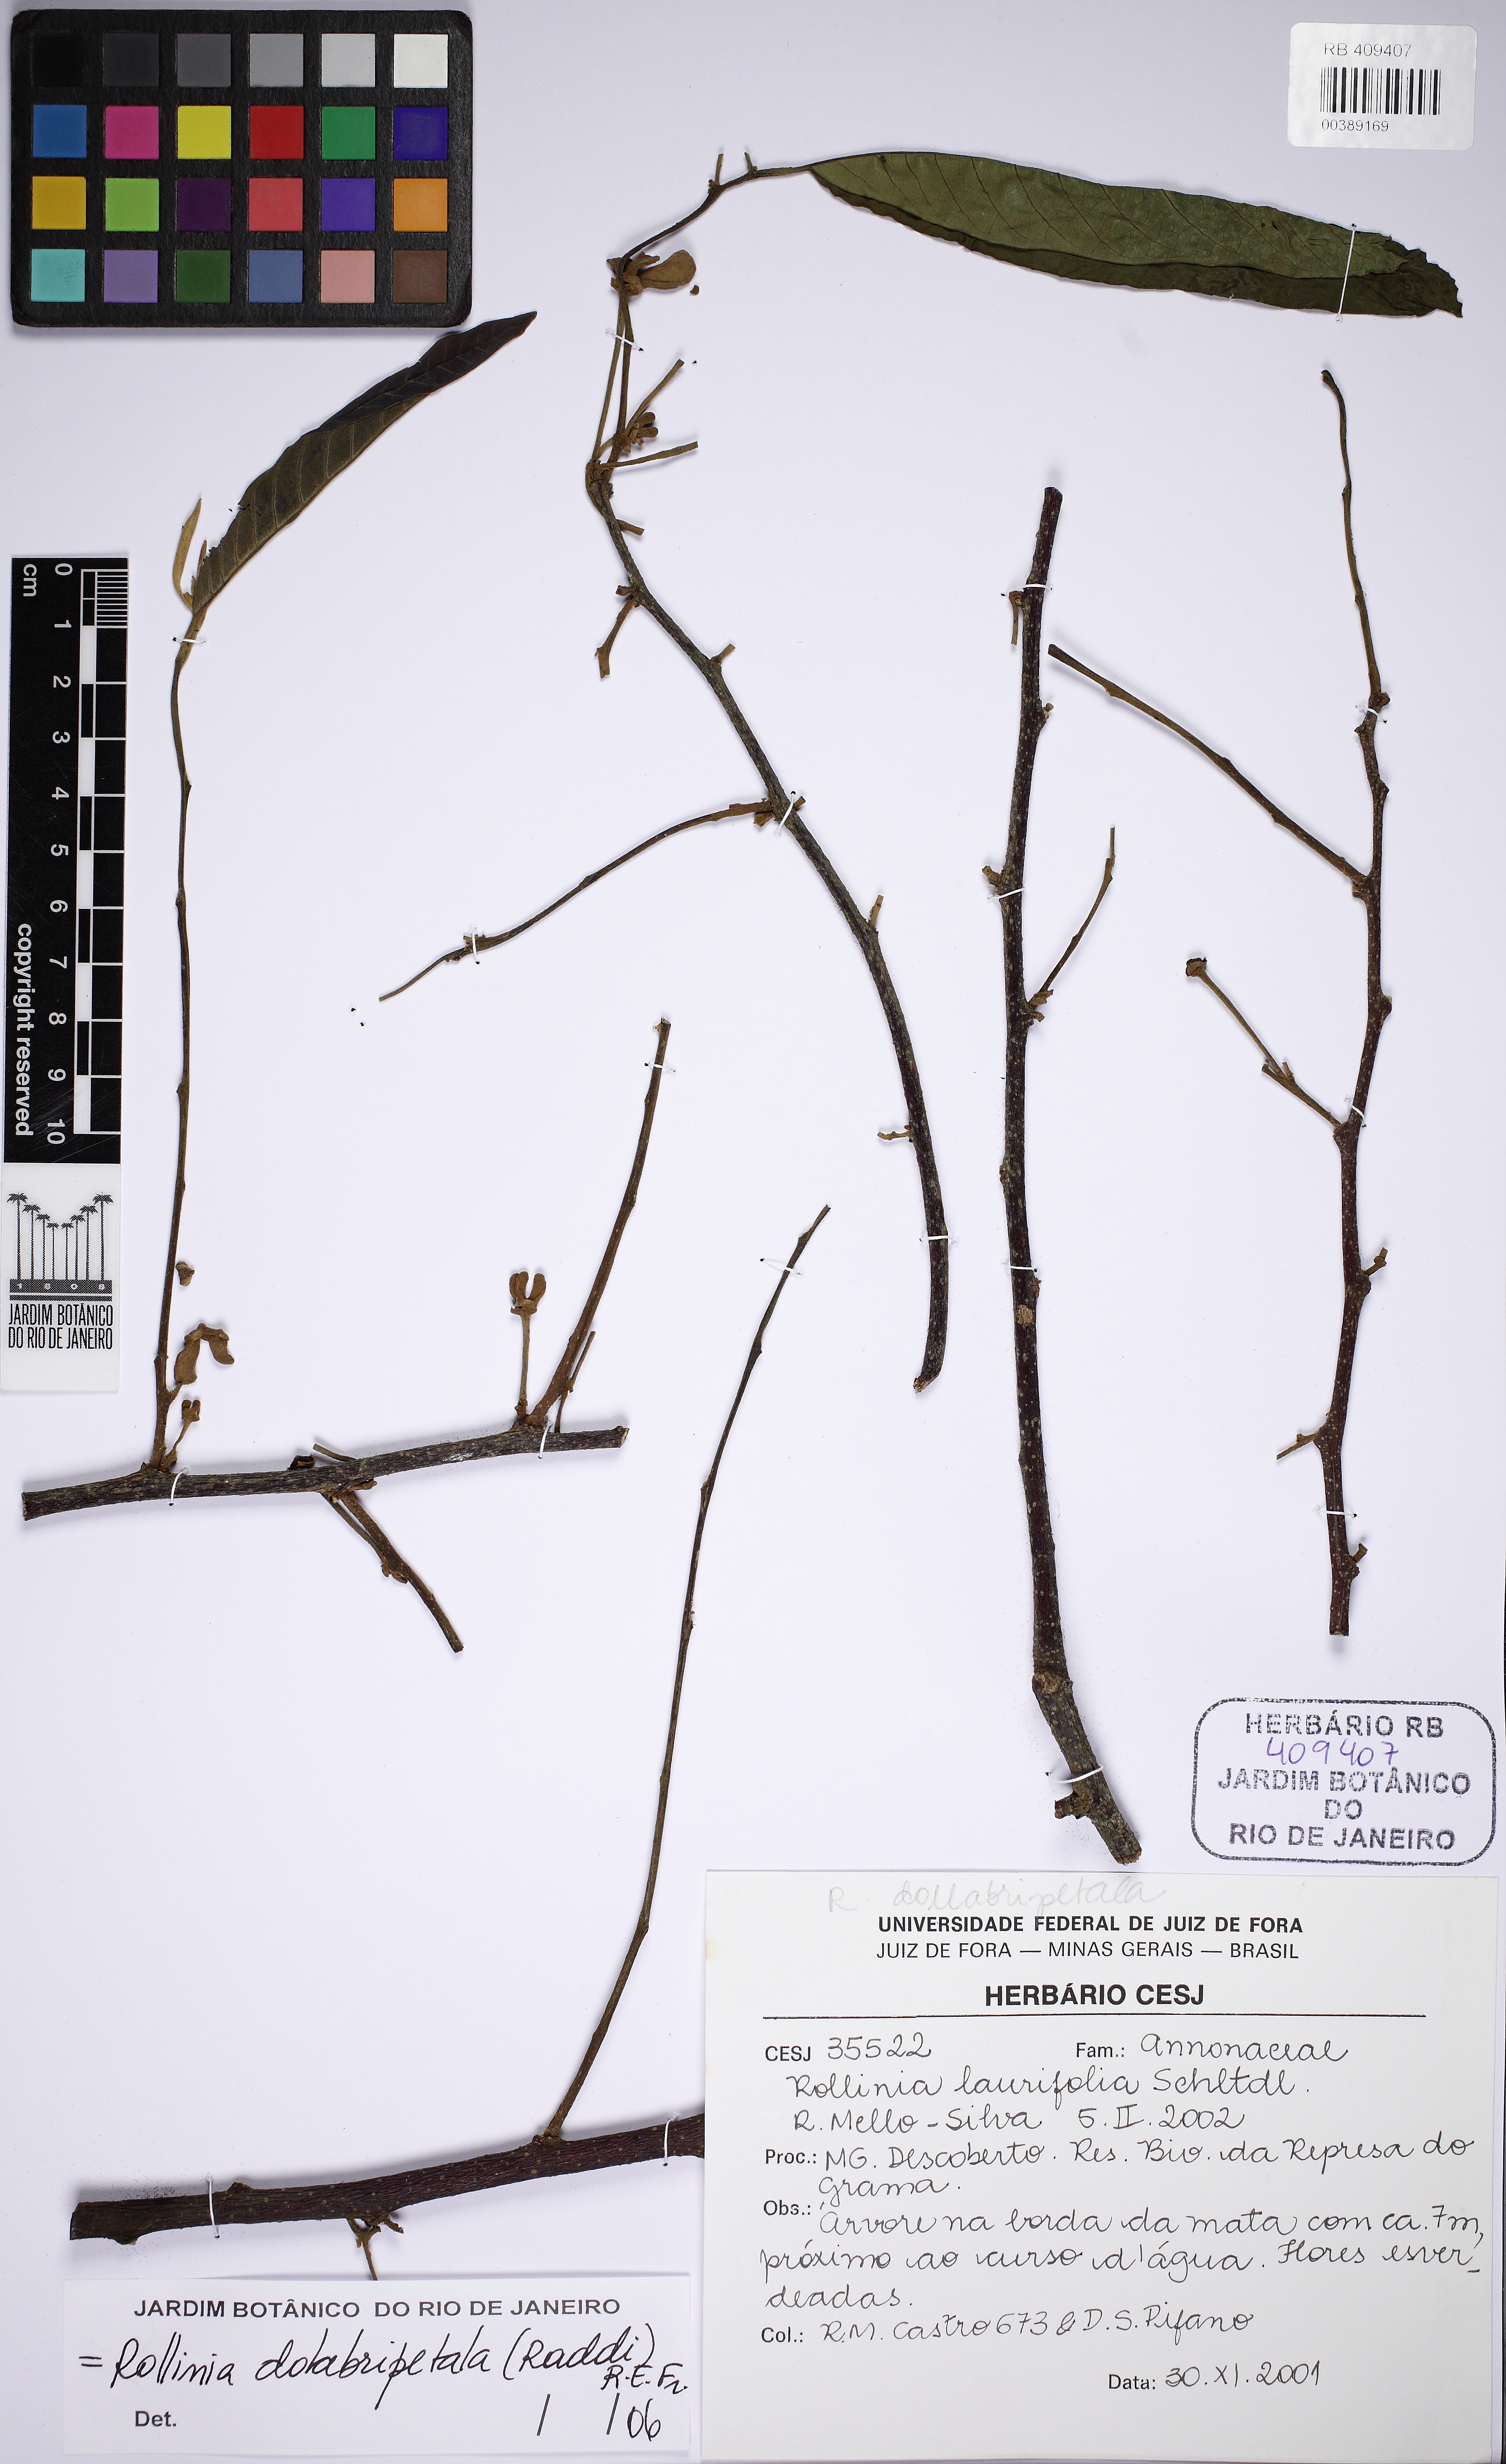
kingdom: Plantae
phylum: Tracheophyta
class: Magnoliopsida
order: Magnoliales
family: Annonaceae
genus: Annona
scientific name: Annona dolabripetala
